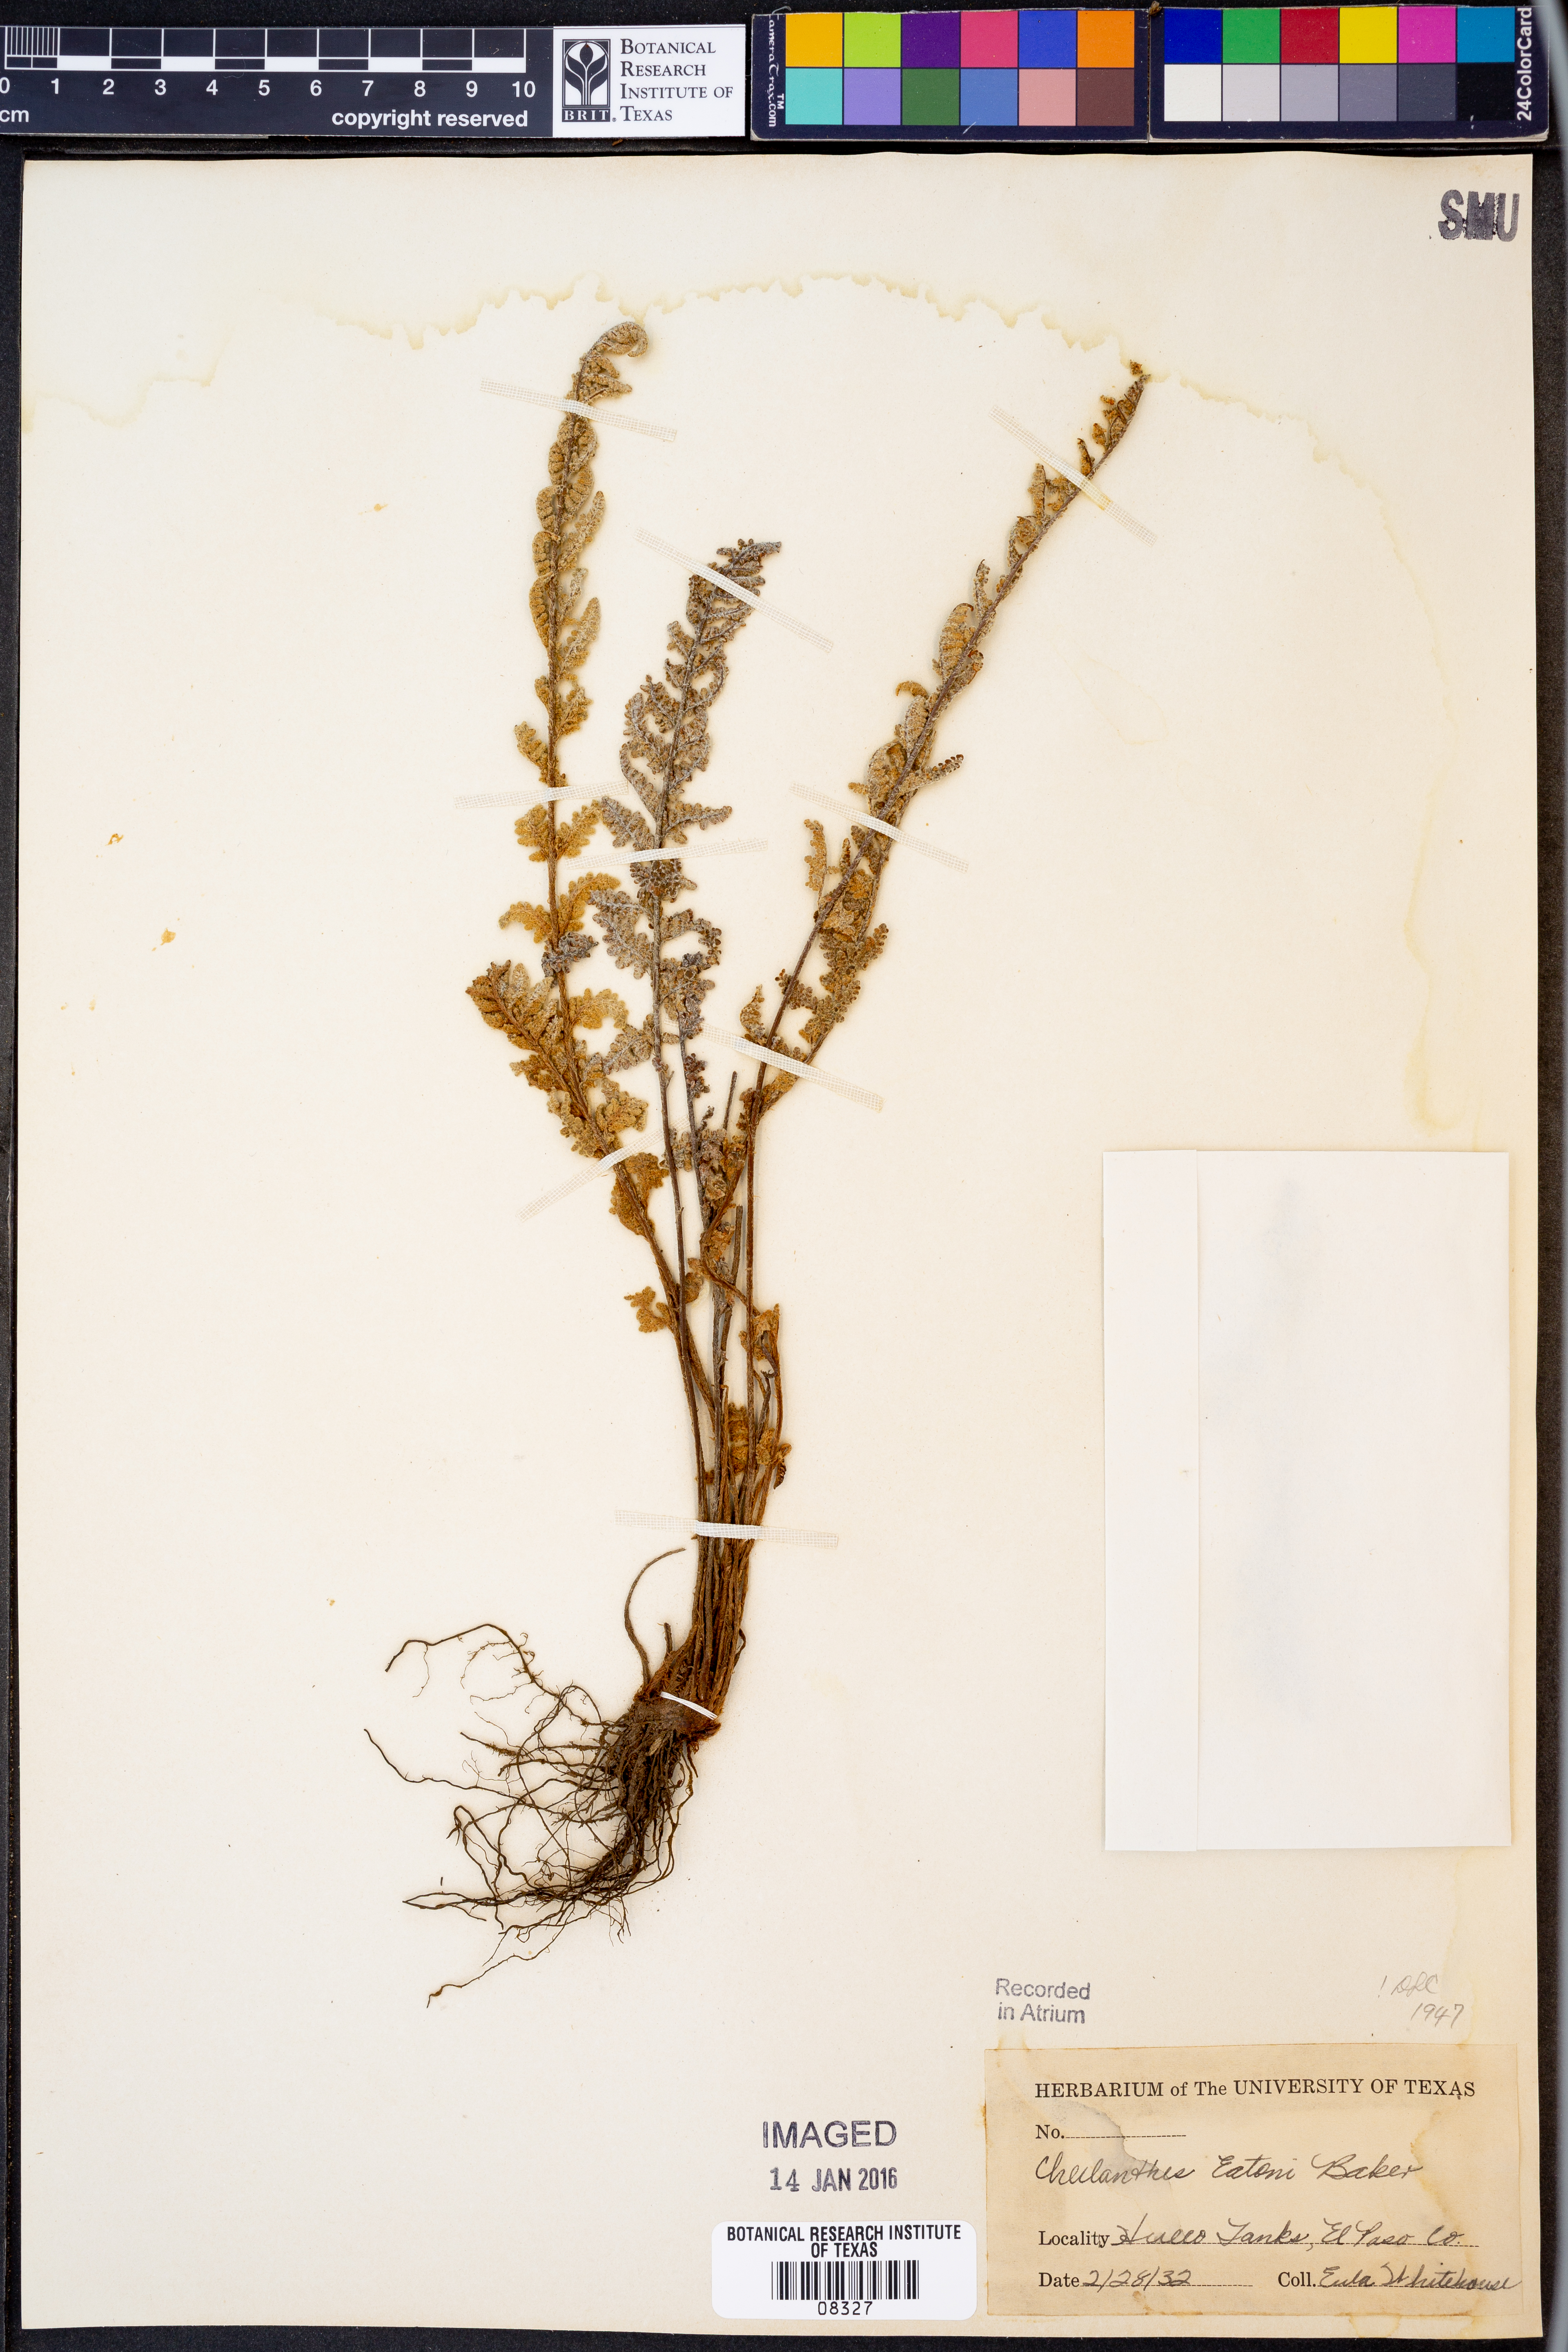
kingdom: Plantae
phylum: Tracheophyta
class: Polypodiopsida
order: Polypodiales
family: Pteridaceae
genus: Myriopteris
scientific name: Myriopteris rufa
